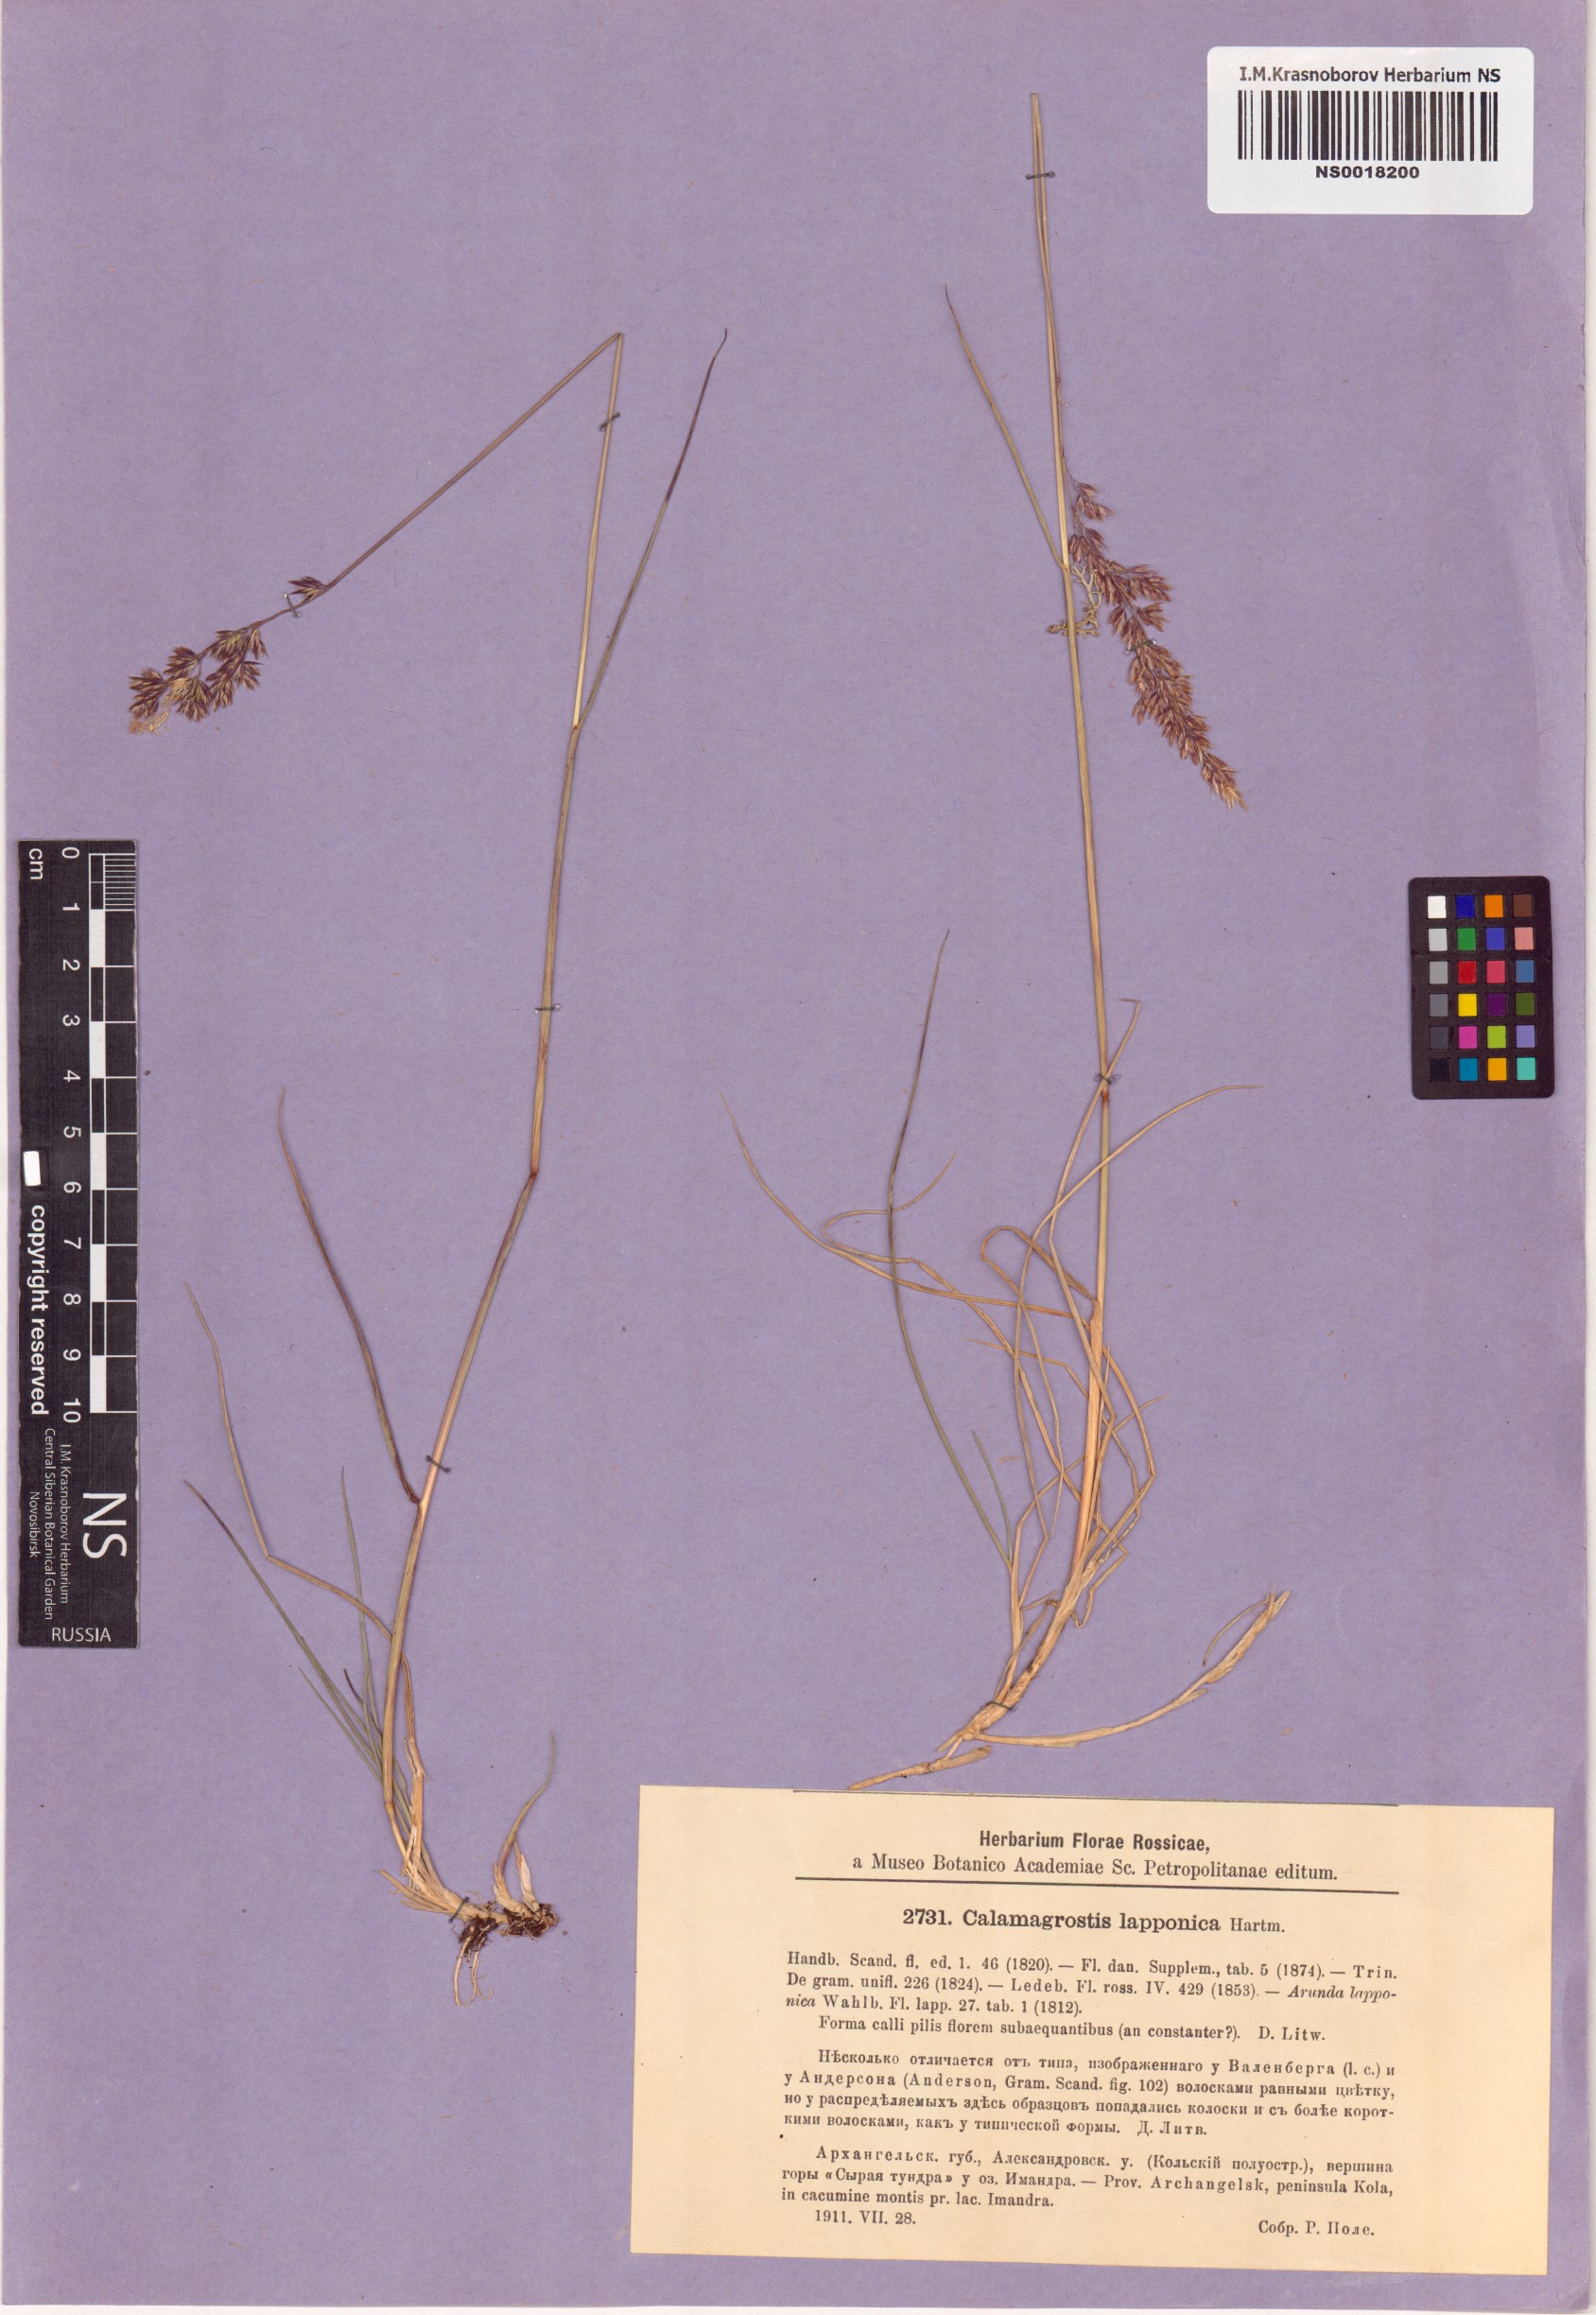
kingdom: Plantae
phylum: Tracheophyta
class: Liliopsida
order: Poales
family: Poaceae
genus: Calamagrostis
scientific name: Calamagrostis lapponica
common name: Lapland reedgrass
